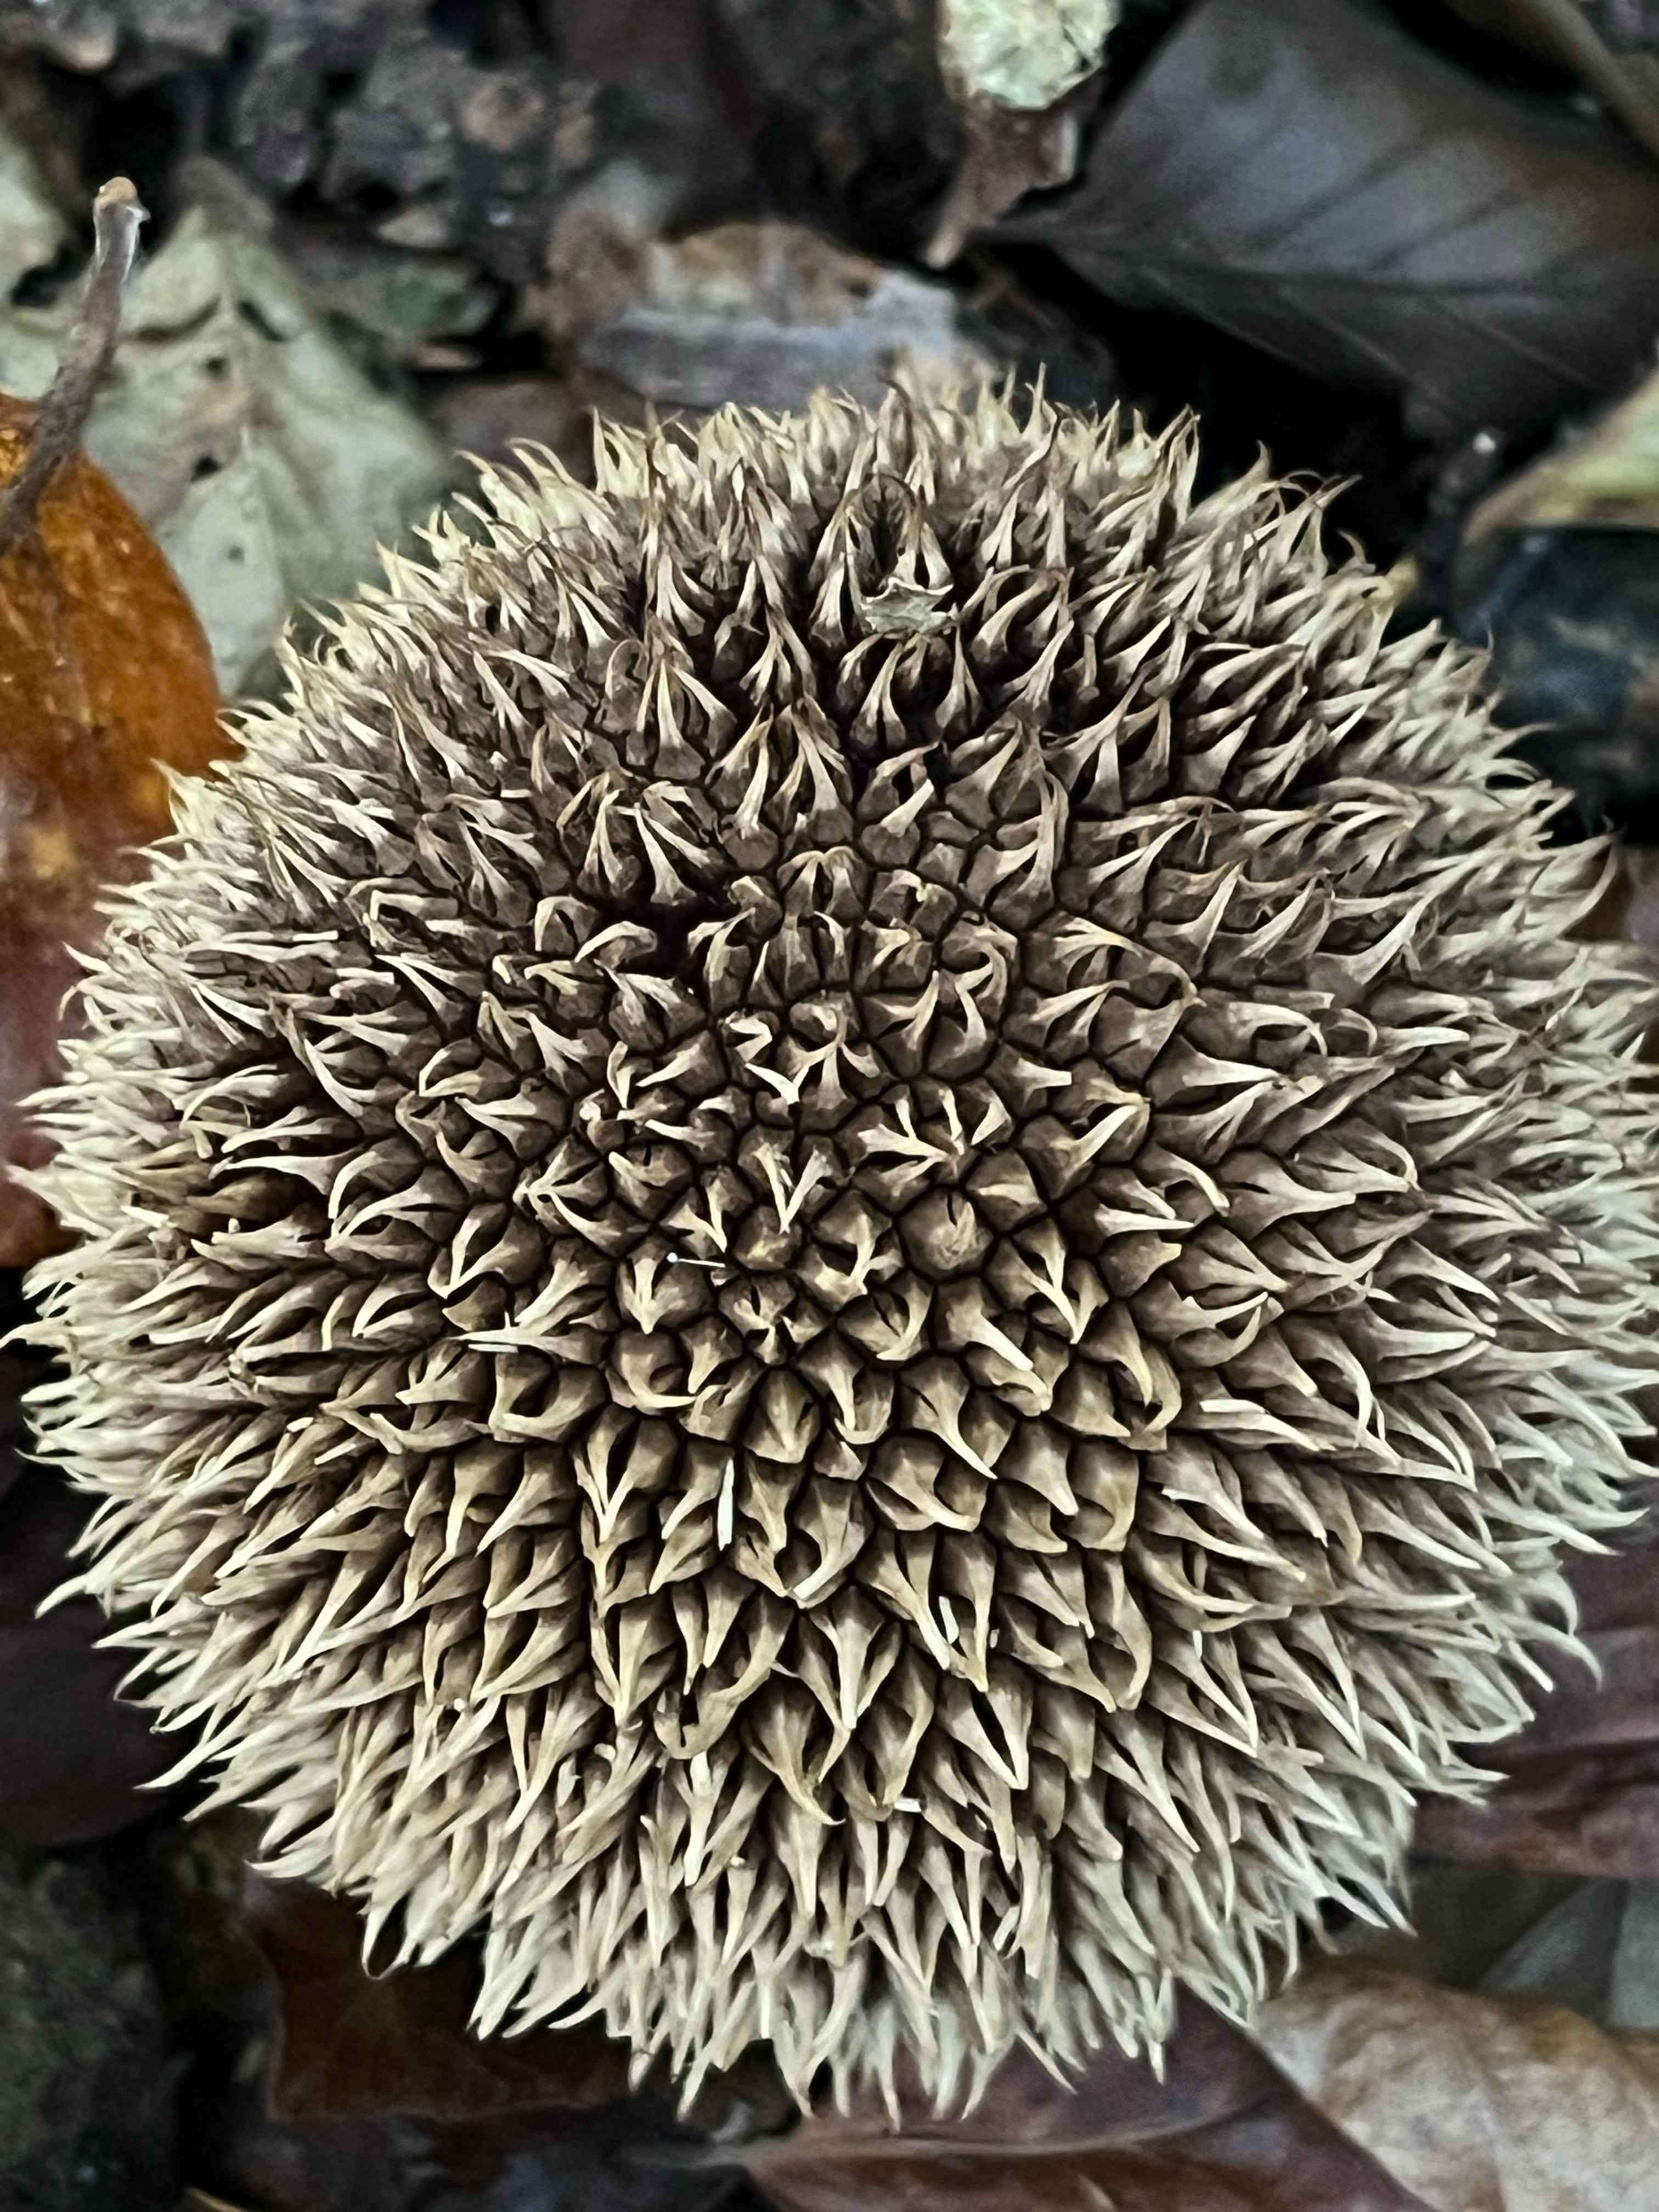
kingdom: Fungi
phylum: Basidiomycota
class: Agaricomycetes
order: Agaricales
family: Lycoperdaceae
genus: Lycoperdon
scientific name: Lycoperdon echinatum
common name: pindsvine-støvbold
